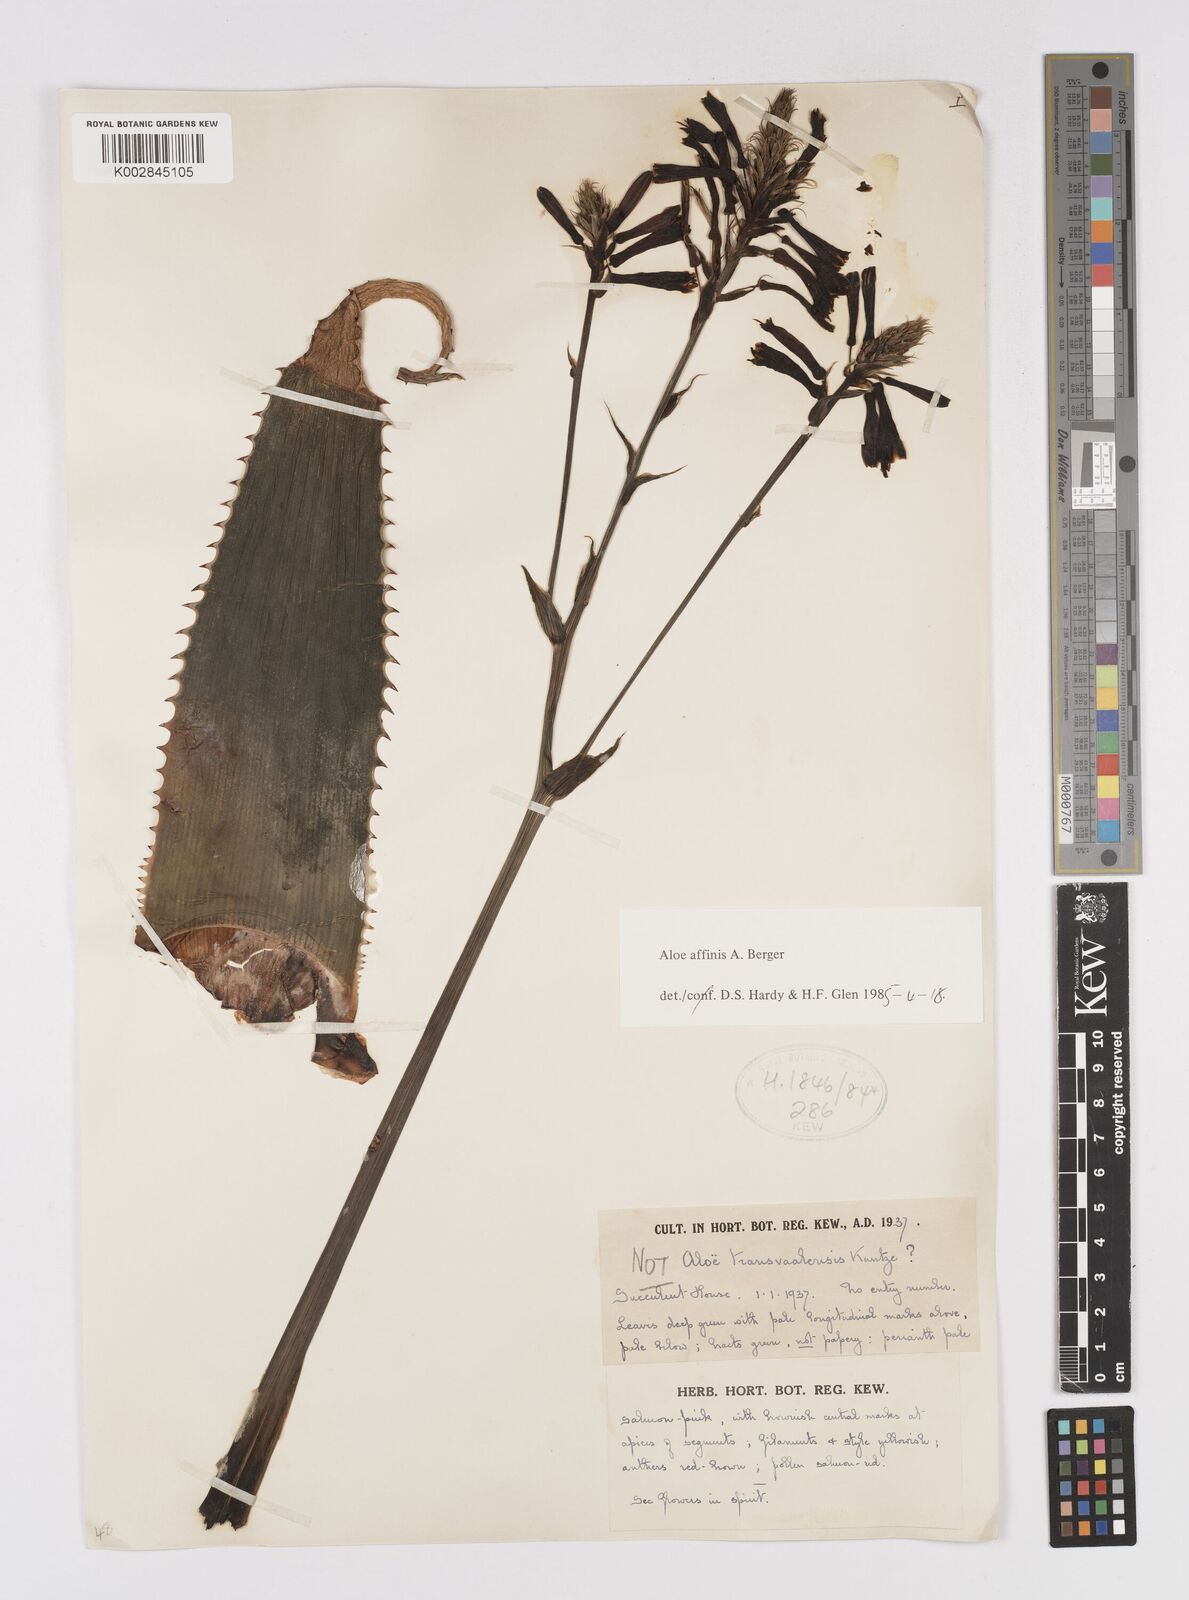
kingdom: Plantae
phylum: Tracheophyta
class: Liliopsida
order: Asparagales
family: Asphodelaceae
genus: Aloe
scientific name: Aloe affinis
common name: Spotted aloe
